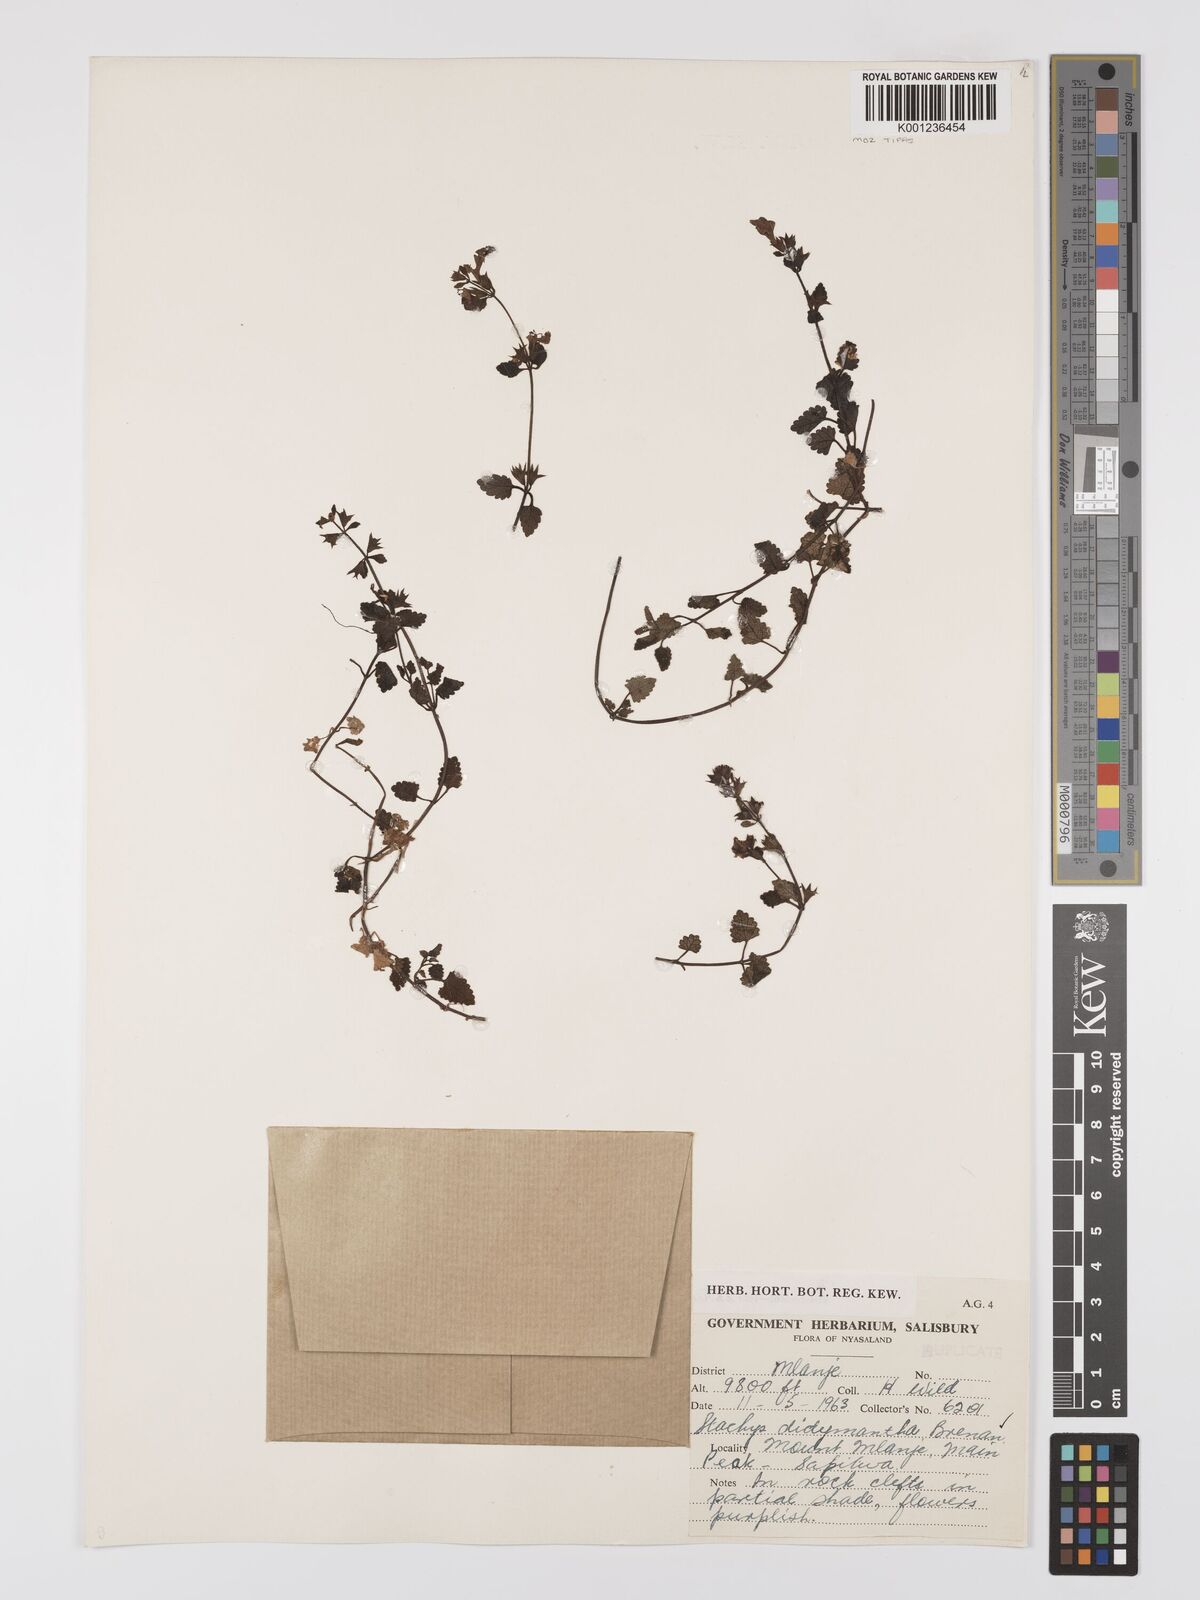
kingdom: Plantae
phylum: Tracheophyta
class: Magnoliopsida
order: Lamiales
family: Lamiaceae
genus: Stachys
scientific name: Stachys didymantha
